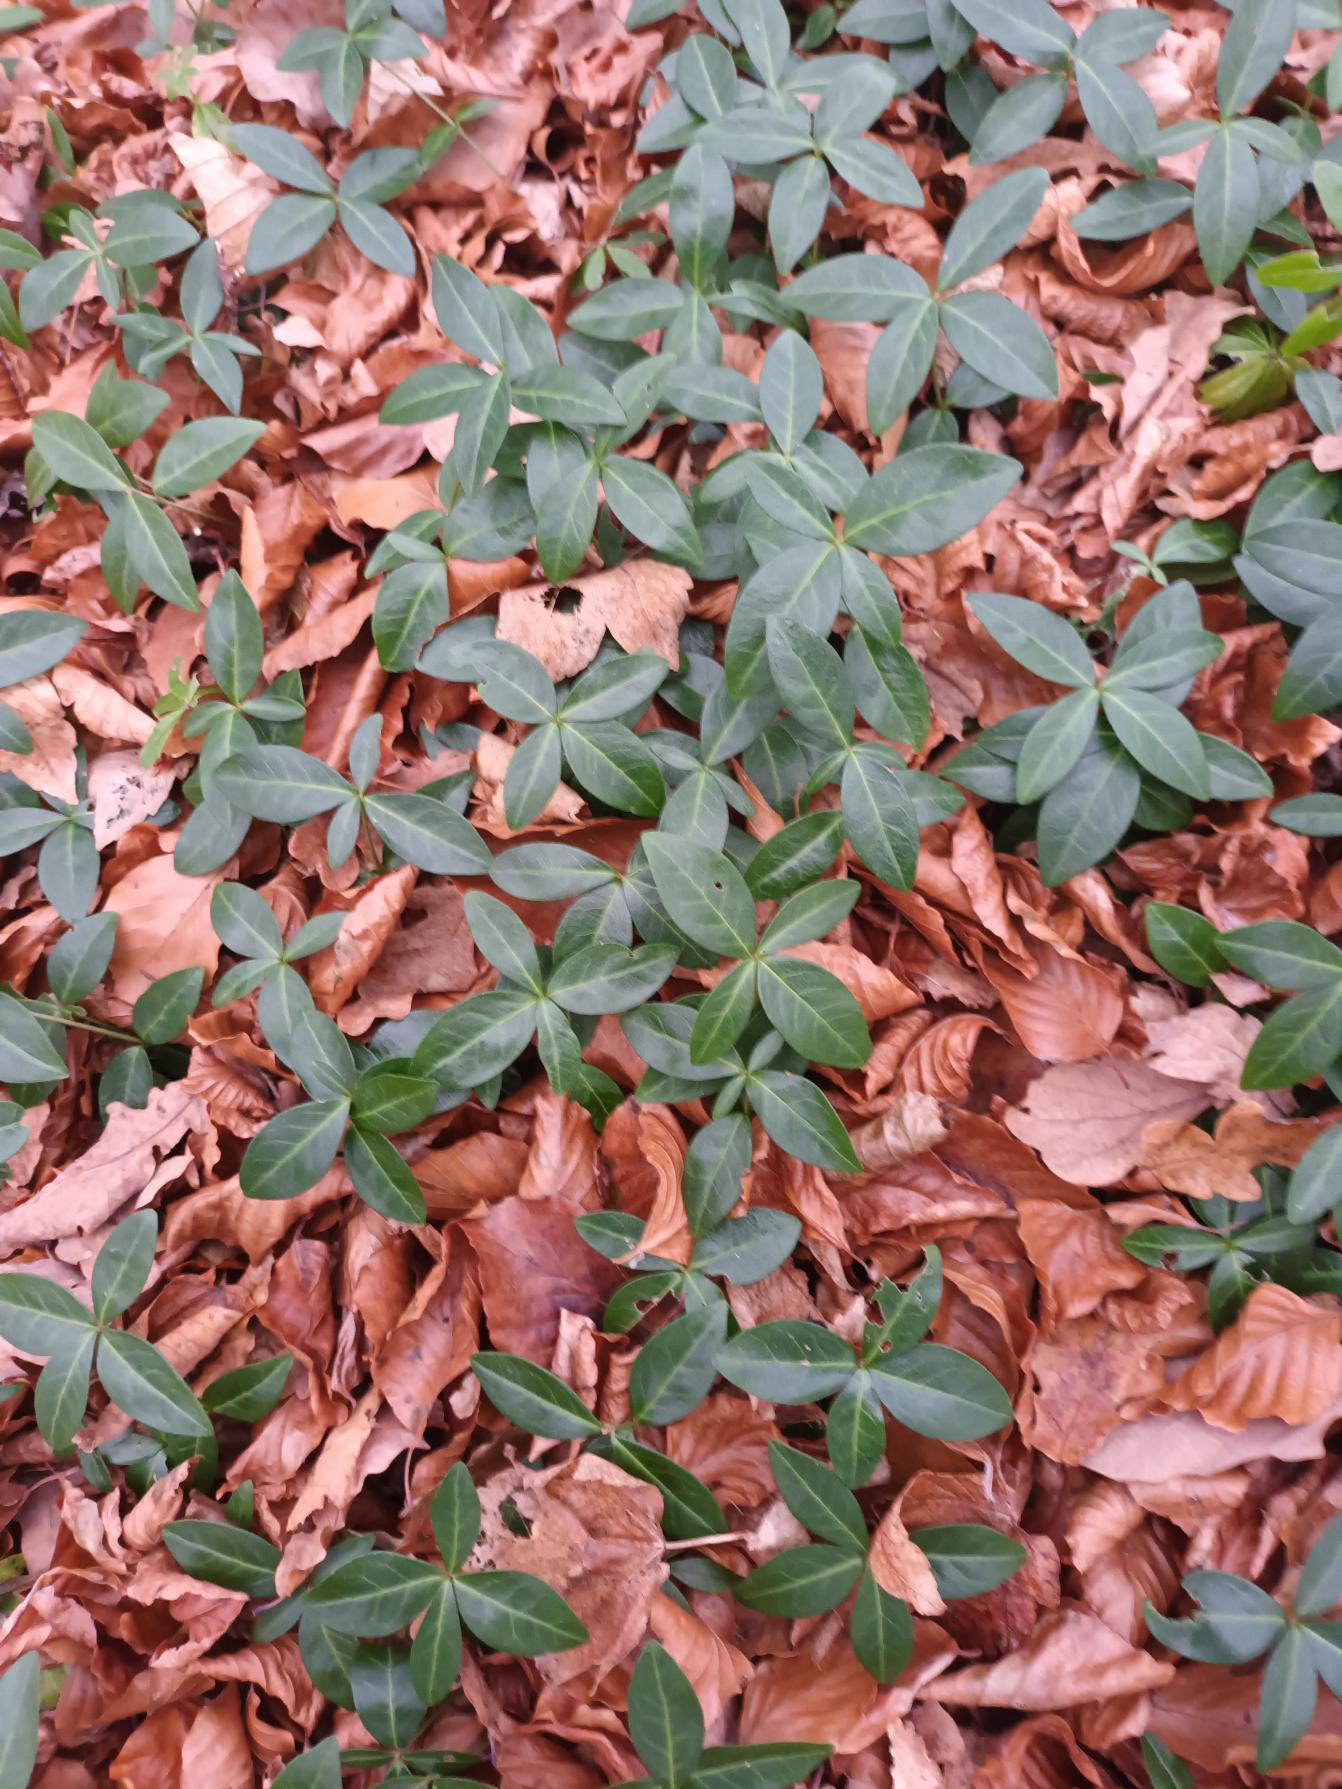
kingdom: Plantae
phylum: Tracheophyta
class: Magnoliopsida
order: Gentianales
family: Apocynaceae
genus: Vinca
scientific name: Vinca minor
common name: Liden singrøn
